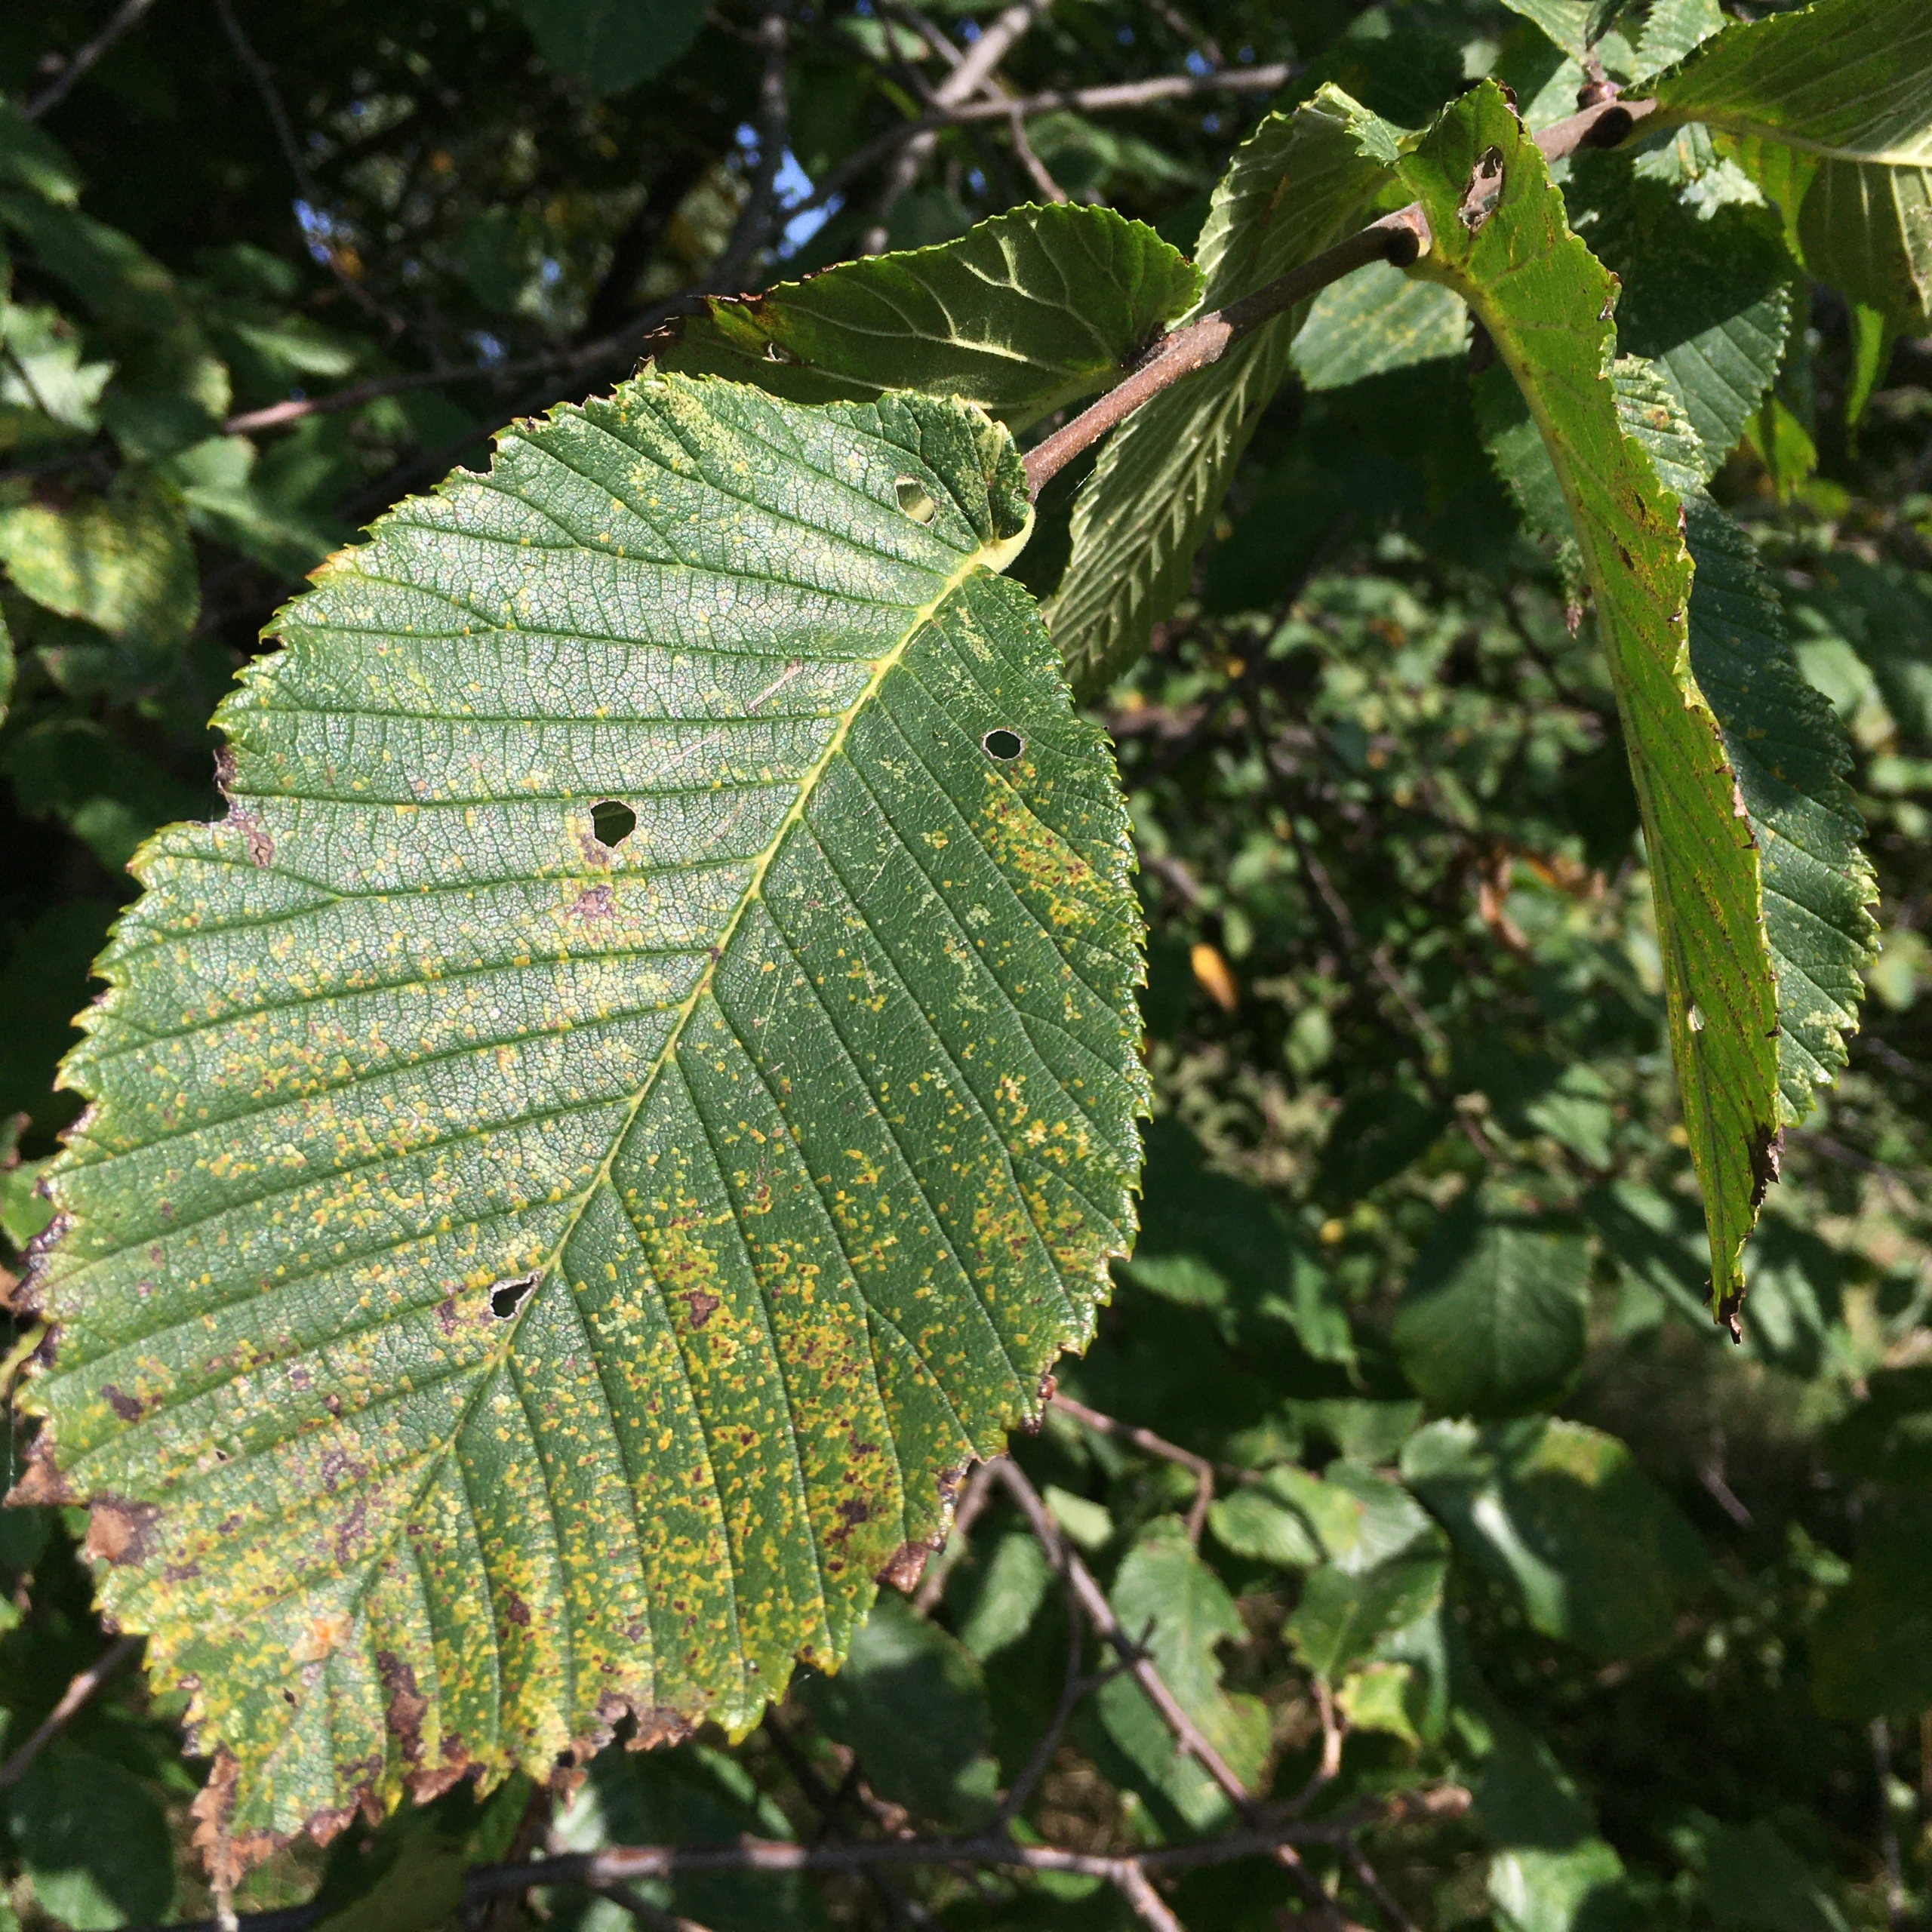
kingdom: Plantae
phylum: Tracheophyta
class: Magnoliopsida
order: Rosales
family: Ulmaceae
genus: Ulmus
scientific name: Ulmus glabra
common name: Skov-elm/storbladet elm
